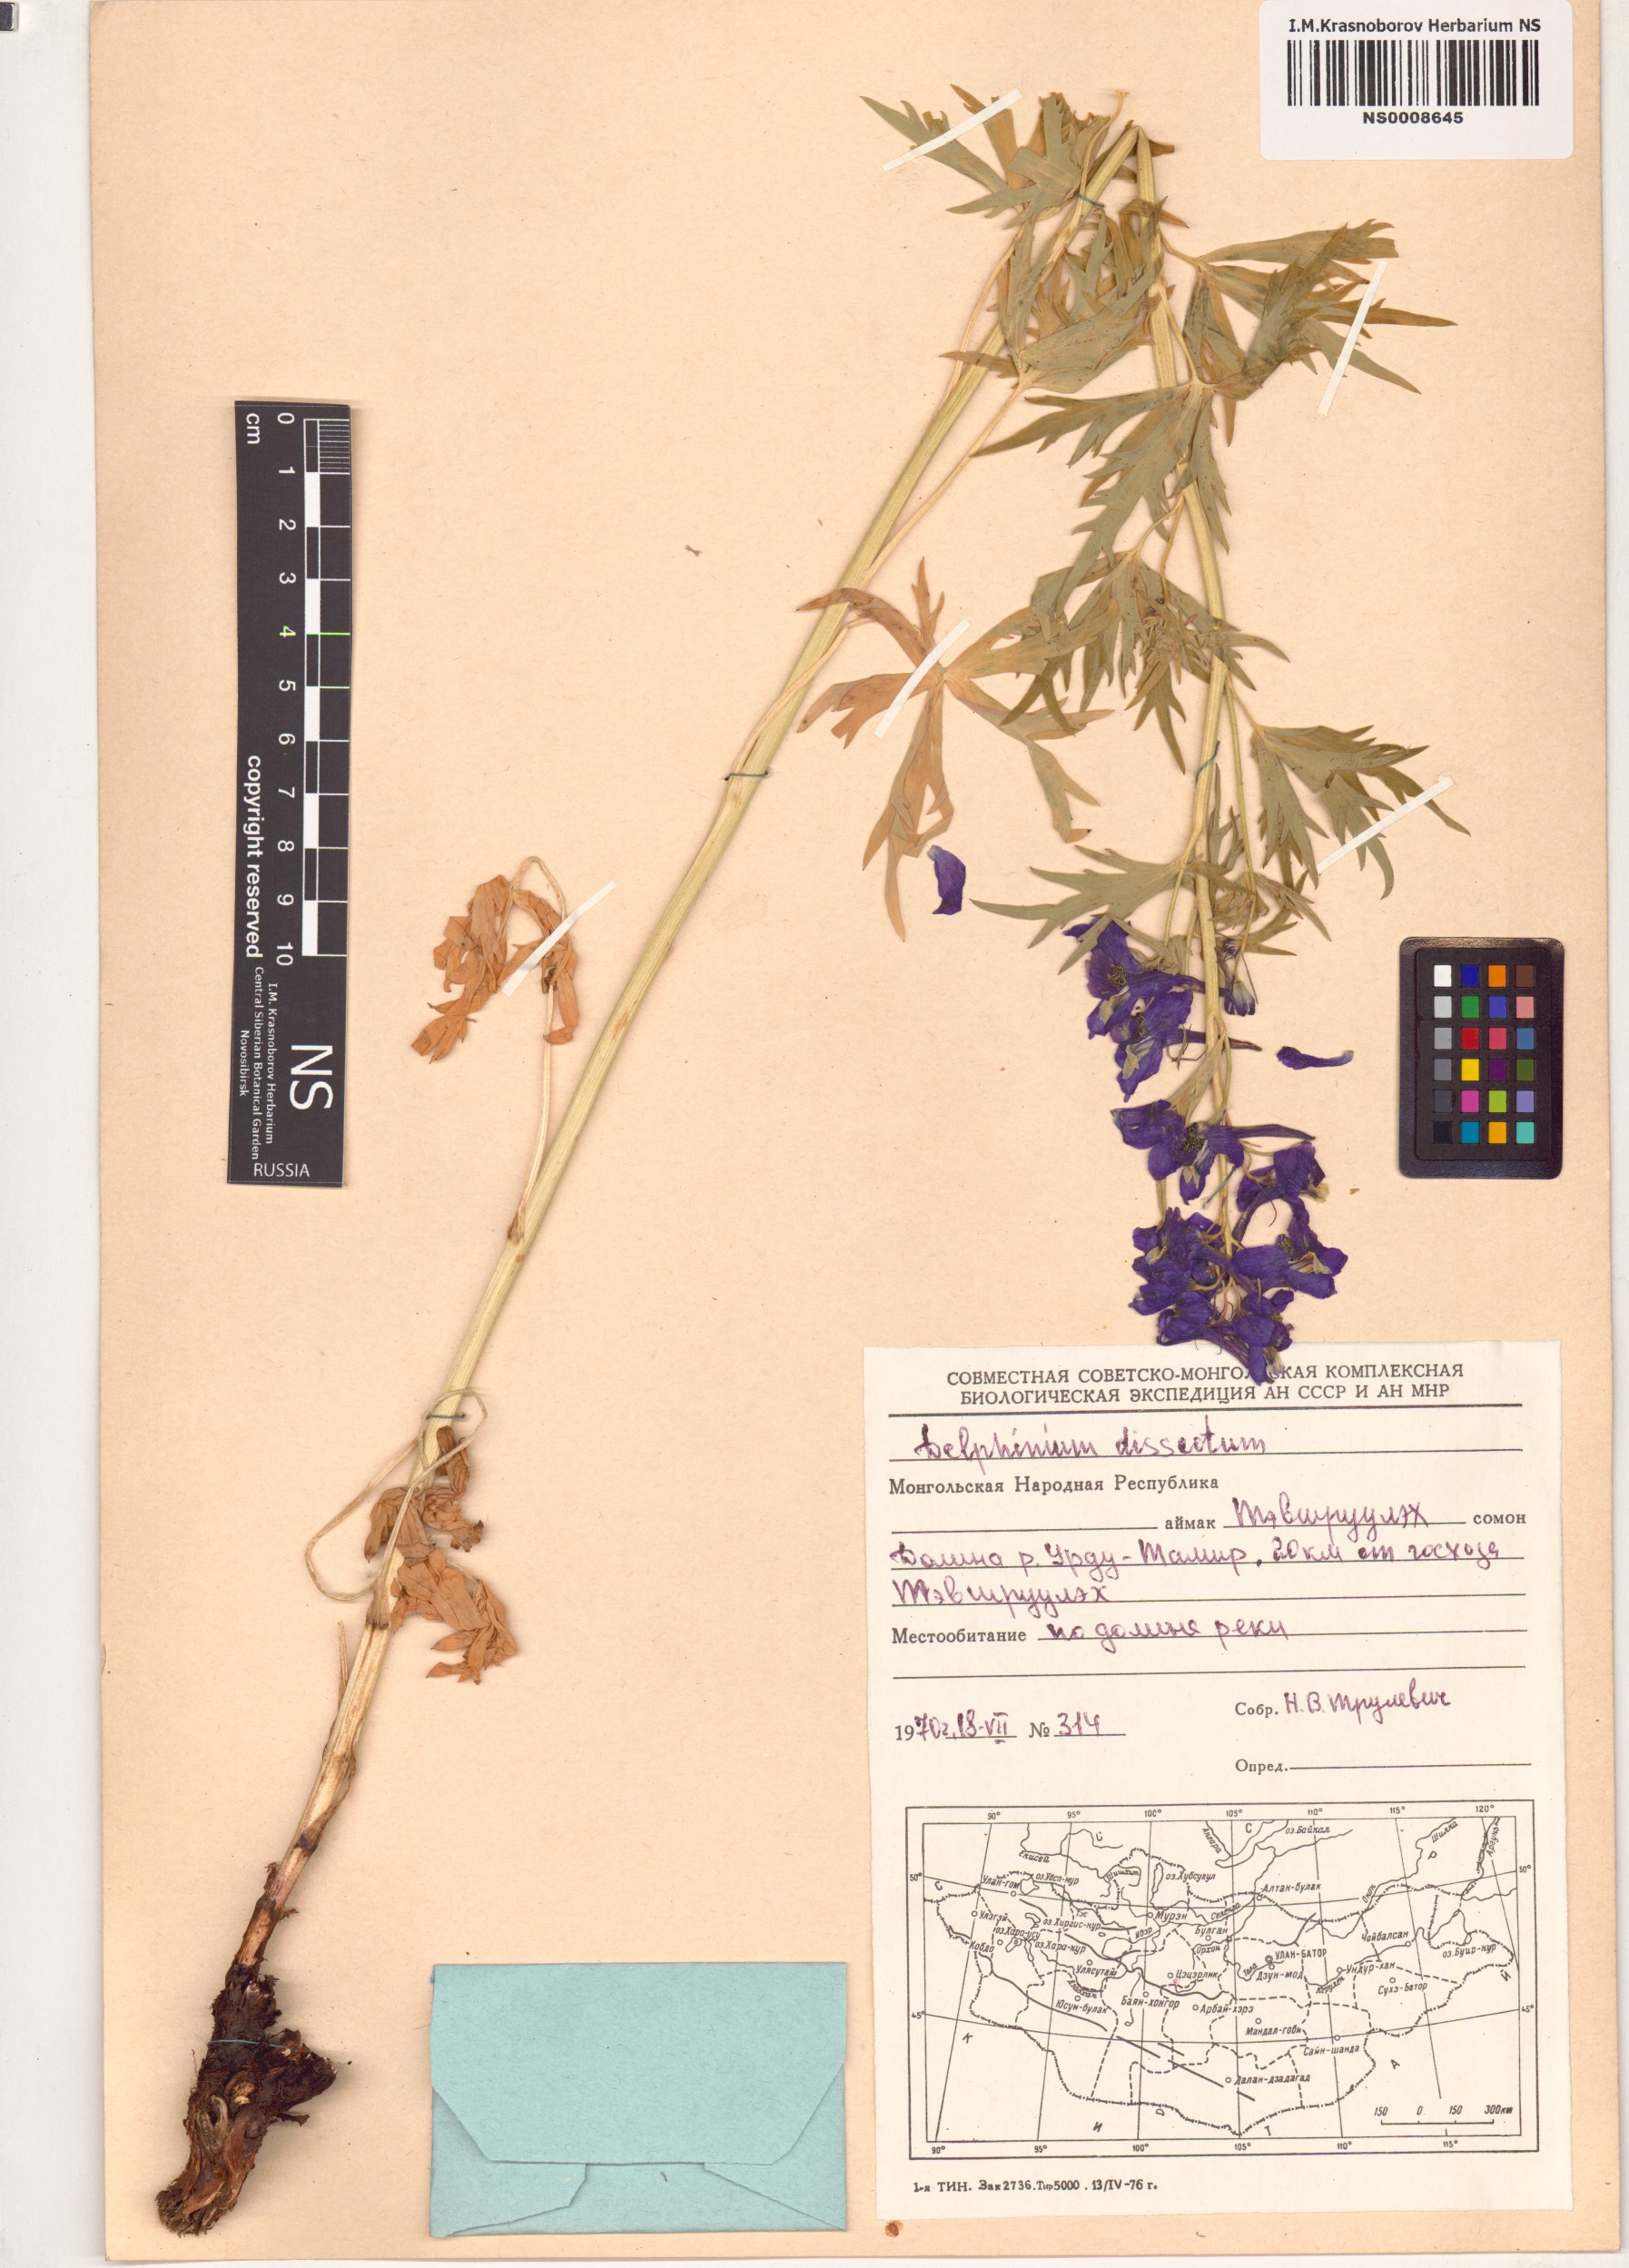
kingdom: Plantae
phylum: Tracheophyta
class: Magnoliopsida
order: Ranunculales
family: Ranunculaceae
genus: Delphinium
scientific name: Delphinium dissectum
